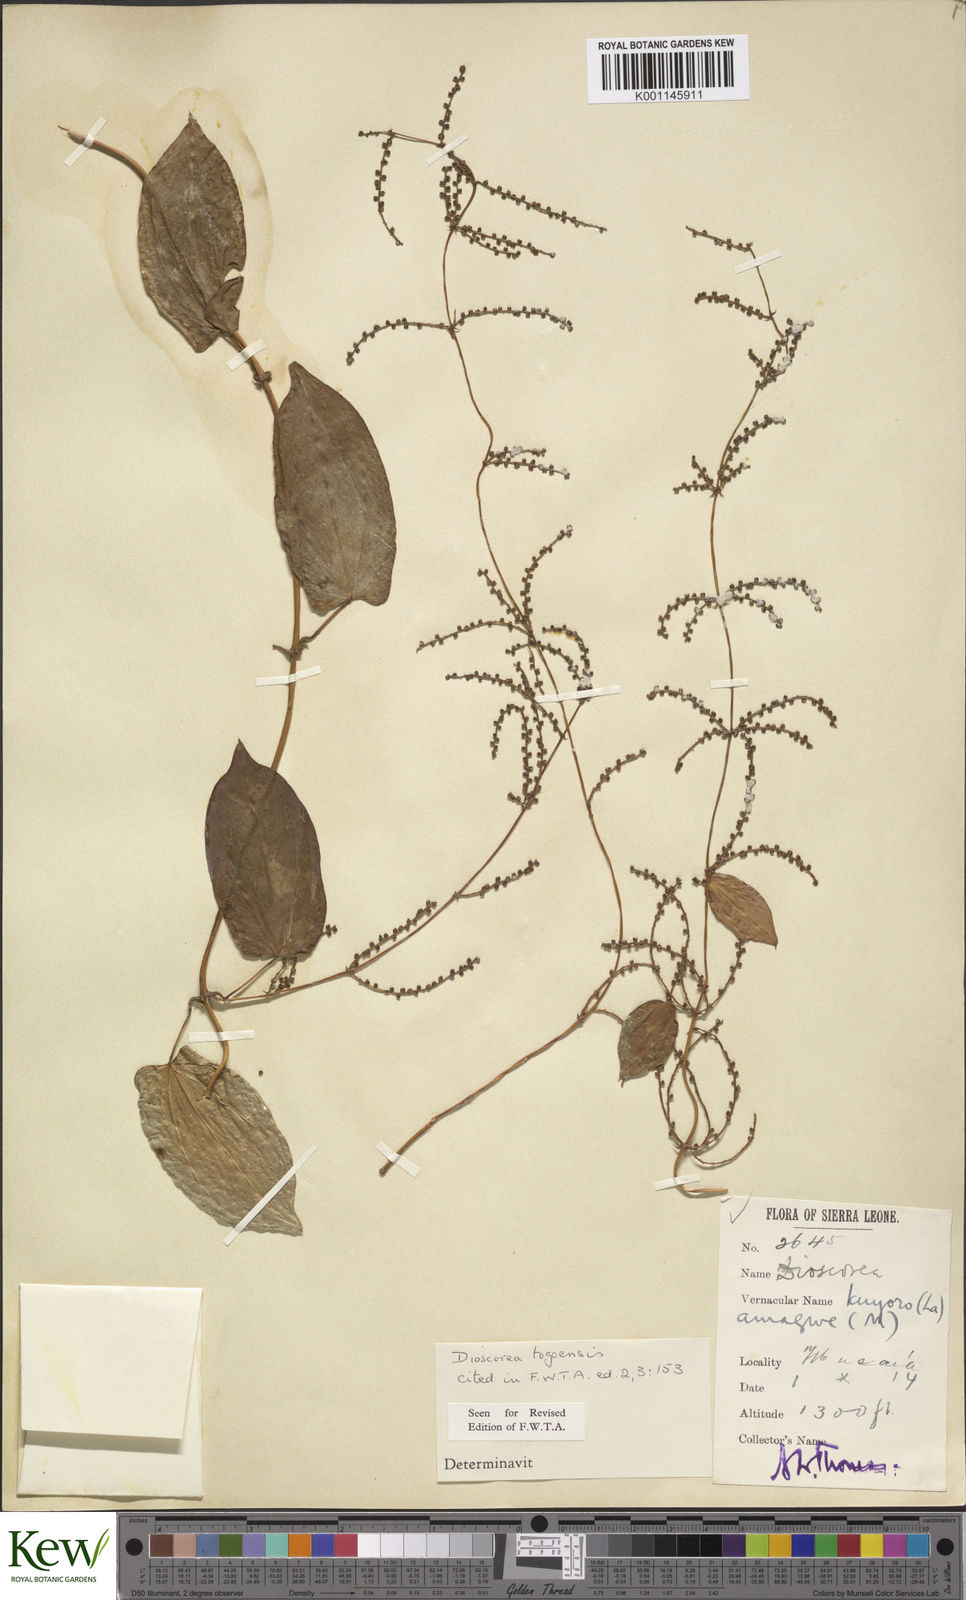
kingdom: Plantae
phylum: Tracheophyta
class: Liliopsida
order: Dioscoreales
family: Dioscoreaceae
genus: Dioscorea
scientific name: Dioscorea togoensis
